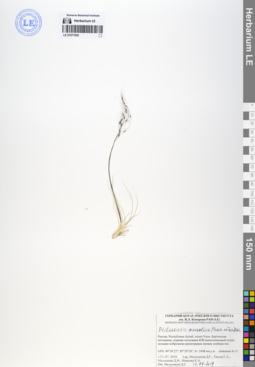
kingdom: Plantae
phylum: Tracheophyta
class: Liliopsida
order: Poales
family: Poaceae
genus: Ptilagrostis
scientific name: Ptilagrostis mongholica
